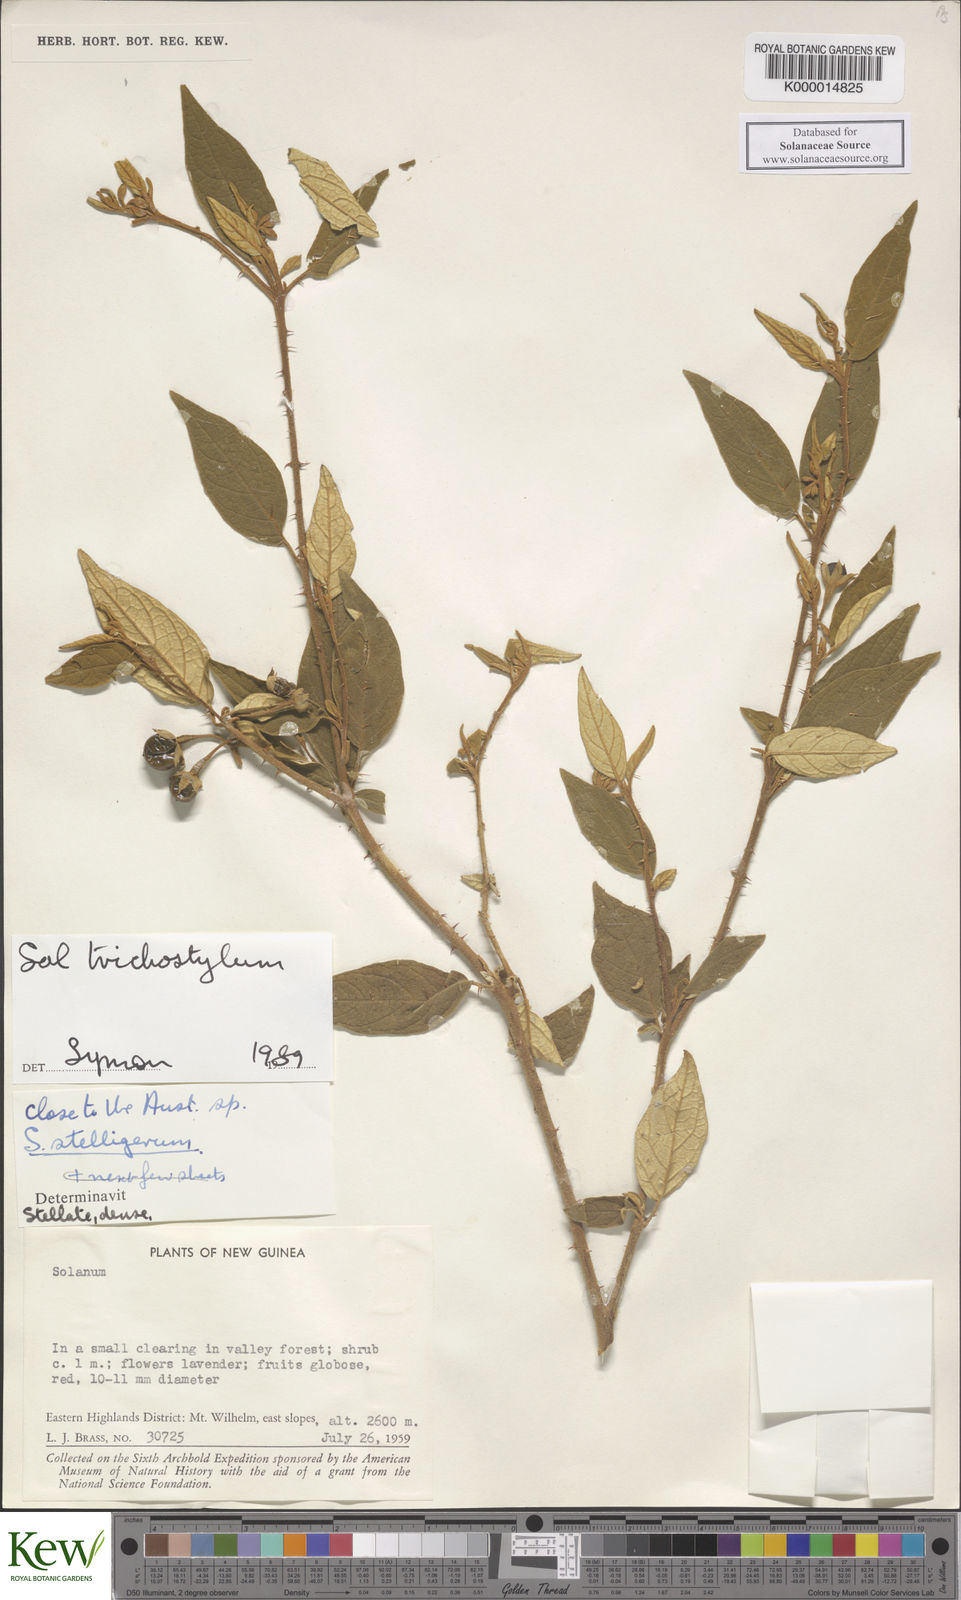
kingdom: Plantae
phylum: Tracheophyta
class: Magnoliopsida
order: Solanales
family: Solanaceae
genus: Solanum
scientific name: Solanum trichostylum
